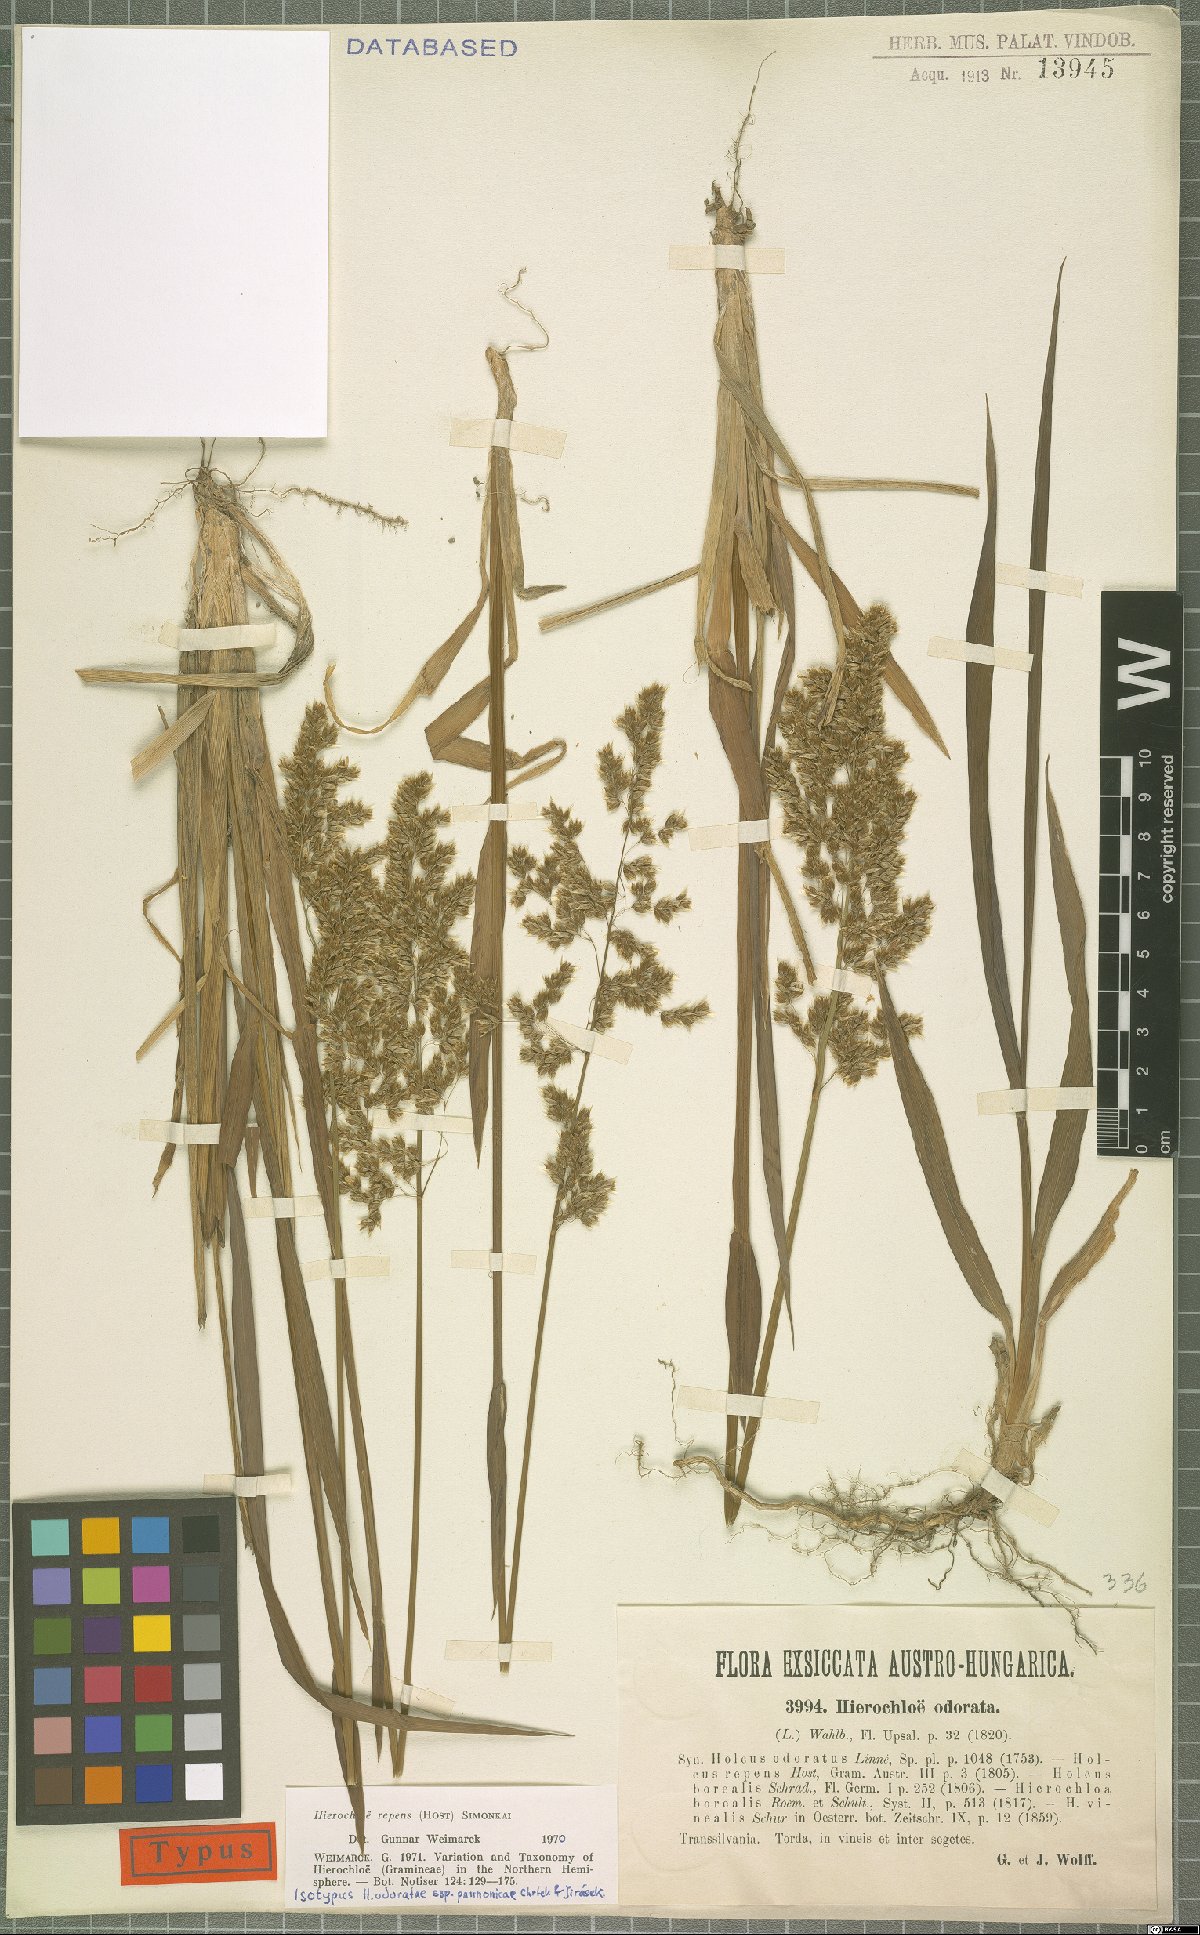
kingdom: Plantae
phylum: Tracheophyta
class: Liliopsida
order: Poales
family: Poaceae
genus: Anthoxanthum
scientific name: Anthoxanthum repens
